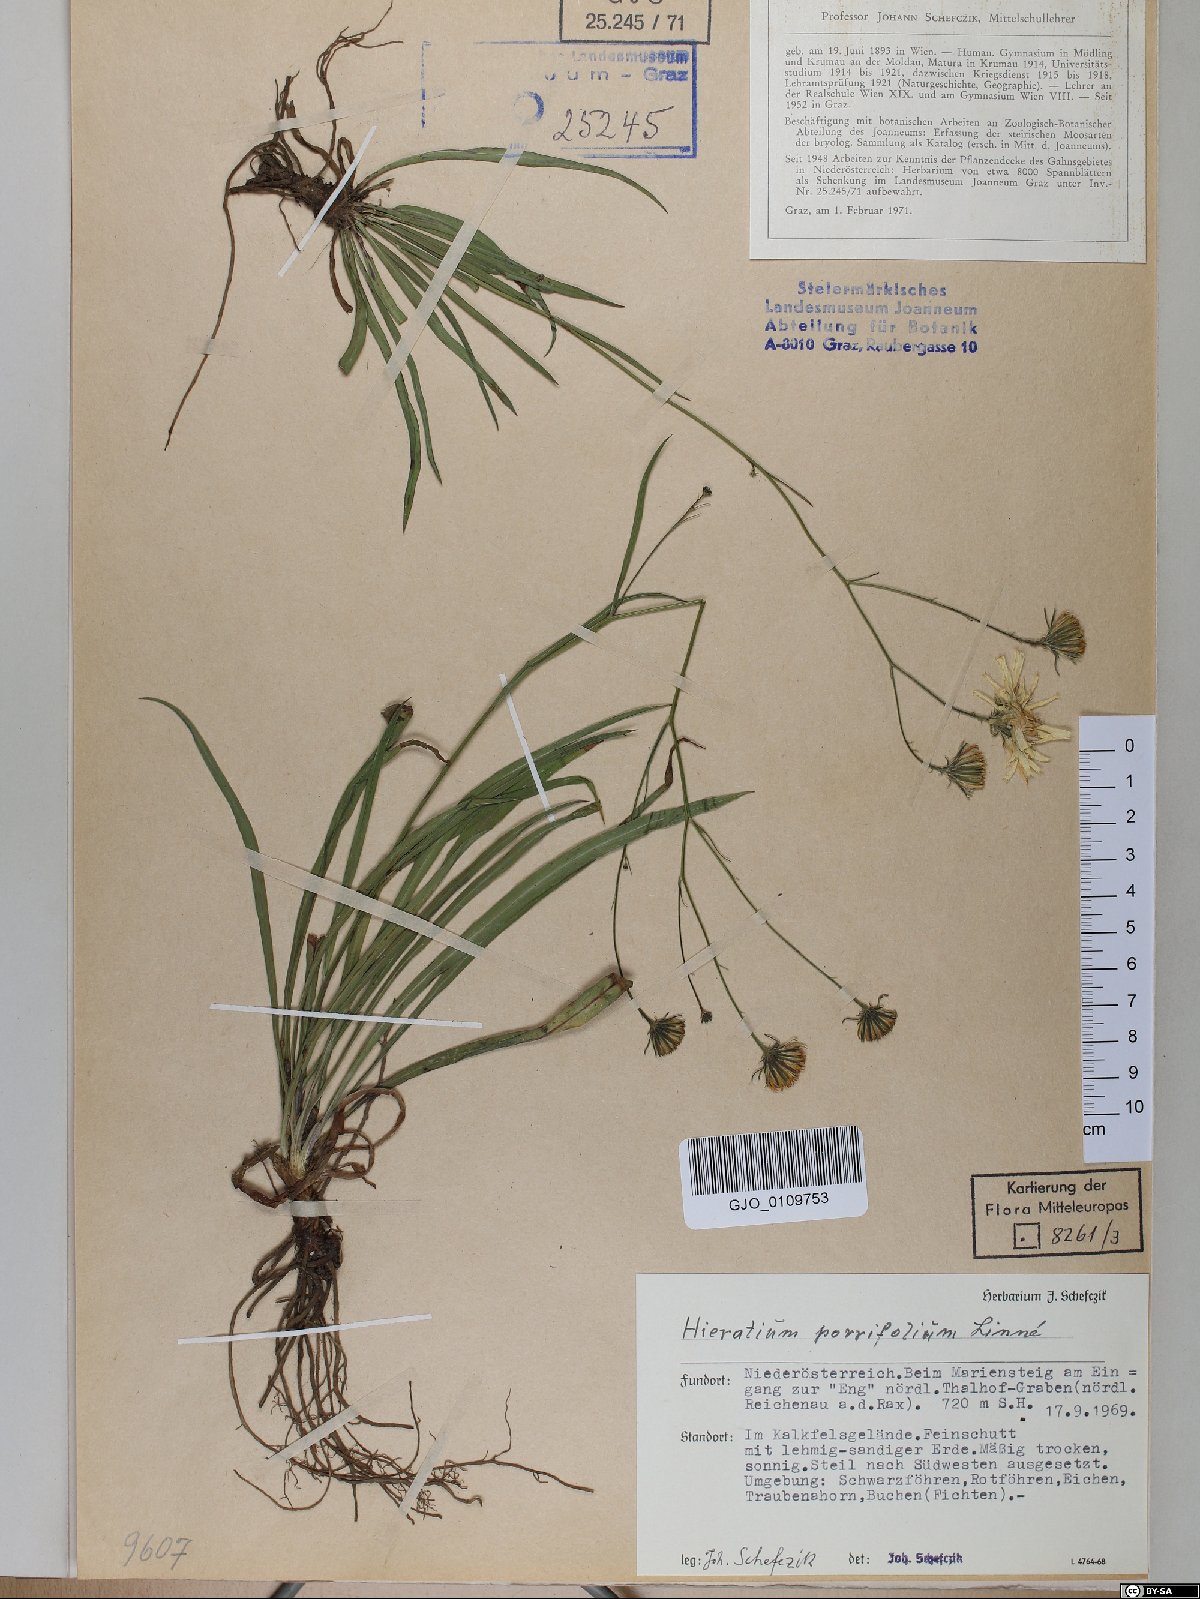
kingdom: Plantae
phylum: Tracheophyta
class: Magnoliopsida
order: Asterales
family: Asteraceae
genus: Hieracium
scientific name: Hieracium porrifolium
